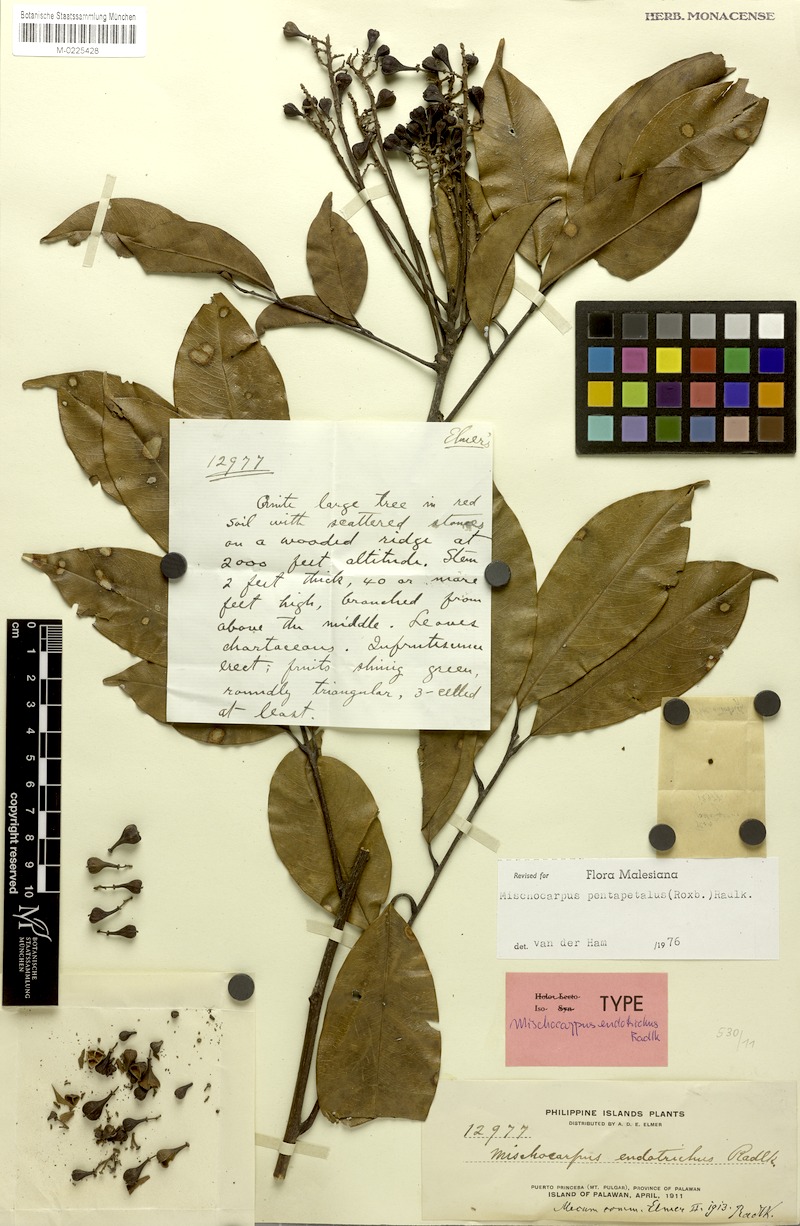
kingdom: Plantae
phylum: Tracheophyta
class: Magnoliopsida
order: Sapindales
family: Sapindaceae
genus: Mischocarpus
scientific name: Mischocarpus pentapetalus
